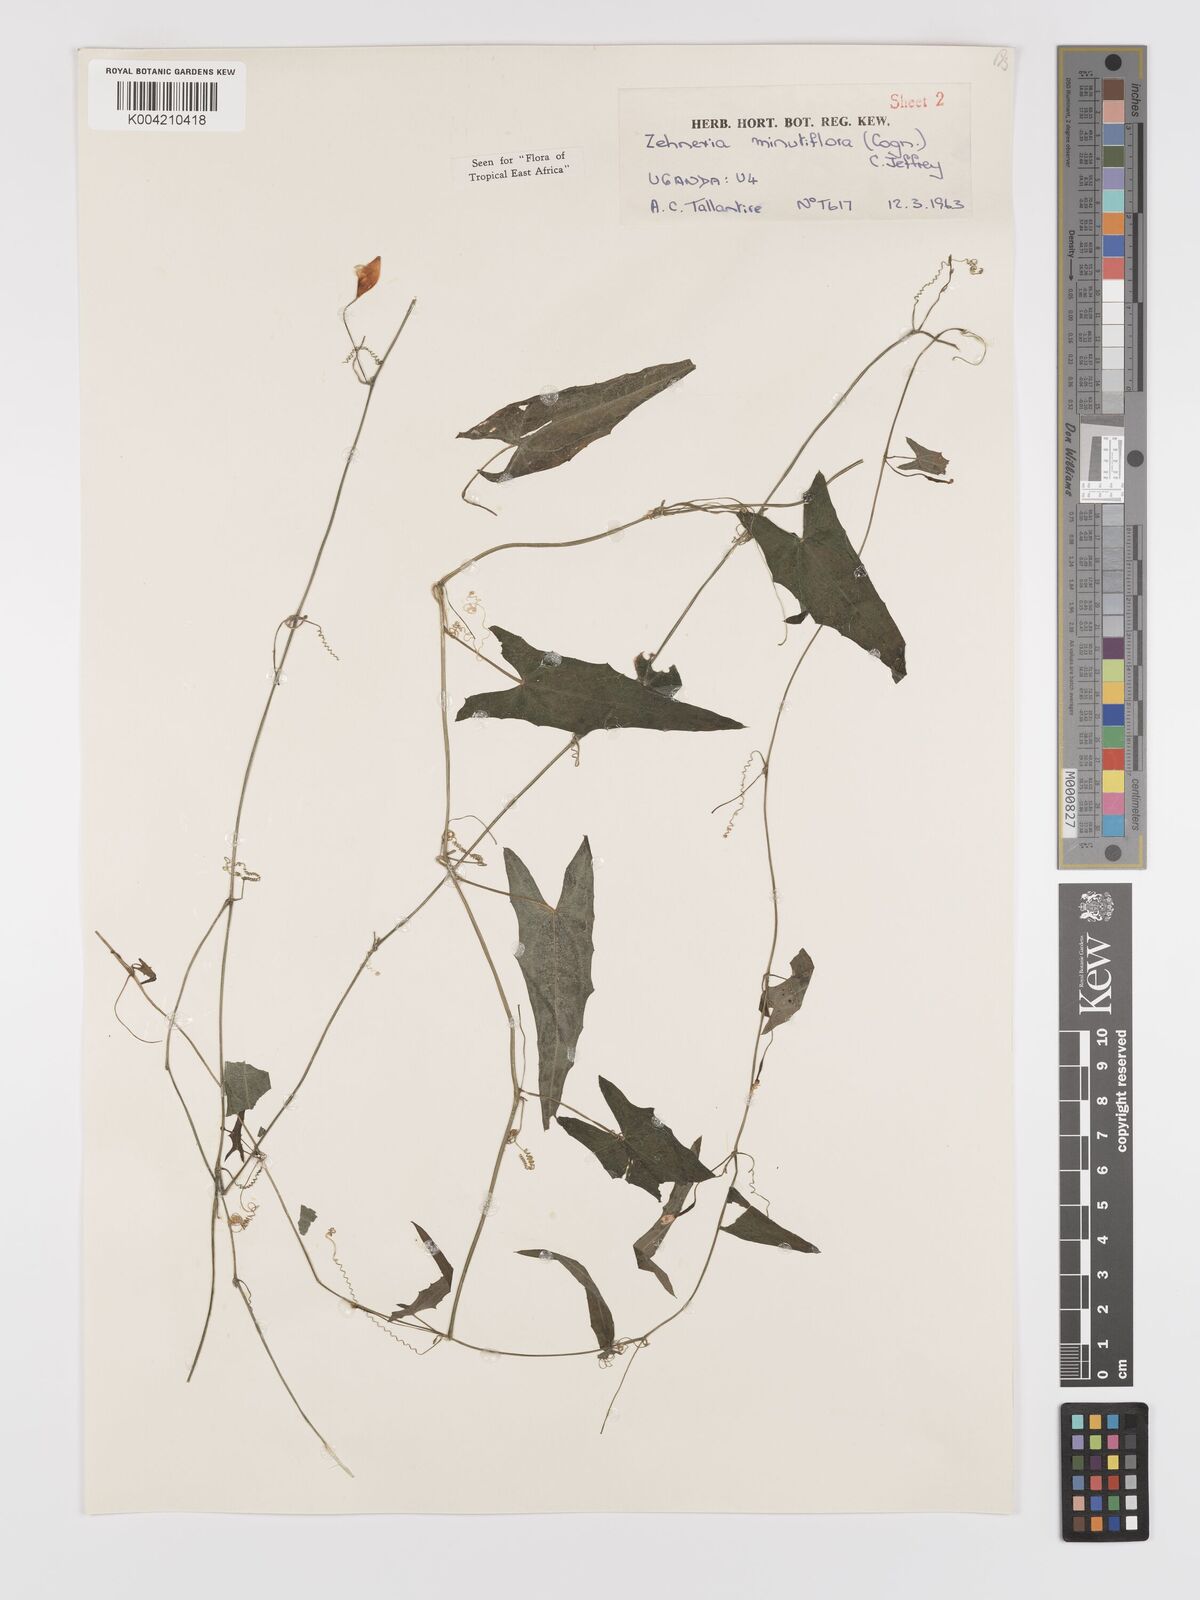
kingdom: Plantae
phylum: Tracheophyta
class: Magnoliopsida
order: Cucurbitales
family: Cucurbitaceae
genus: Zehneria
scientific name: Zehneria minutiflora
